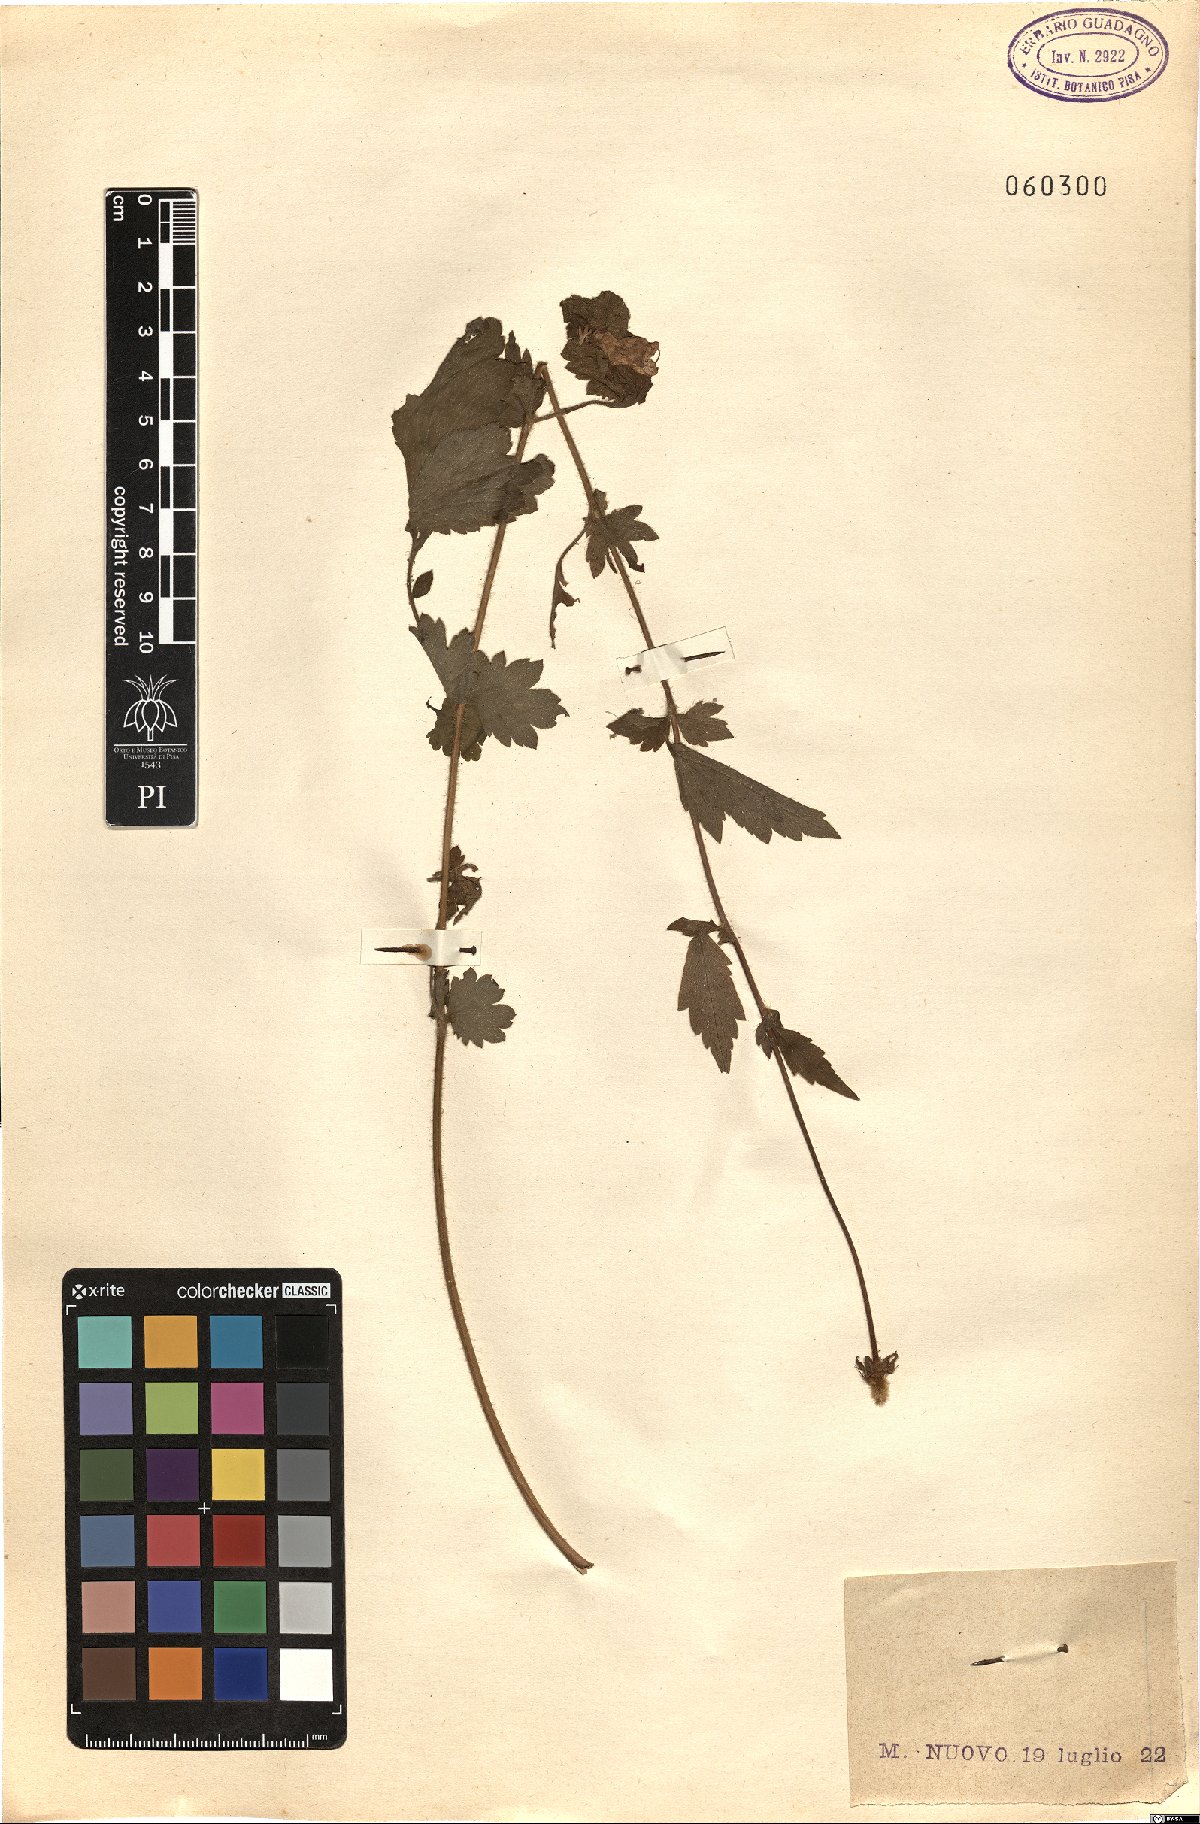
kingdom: Plantae
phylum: Tracheophyta
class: Magnoliopsida
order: Rosales
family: Rosaceae
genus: Geum
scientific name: Geum urbanum
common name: Wood avens
